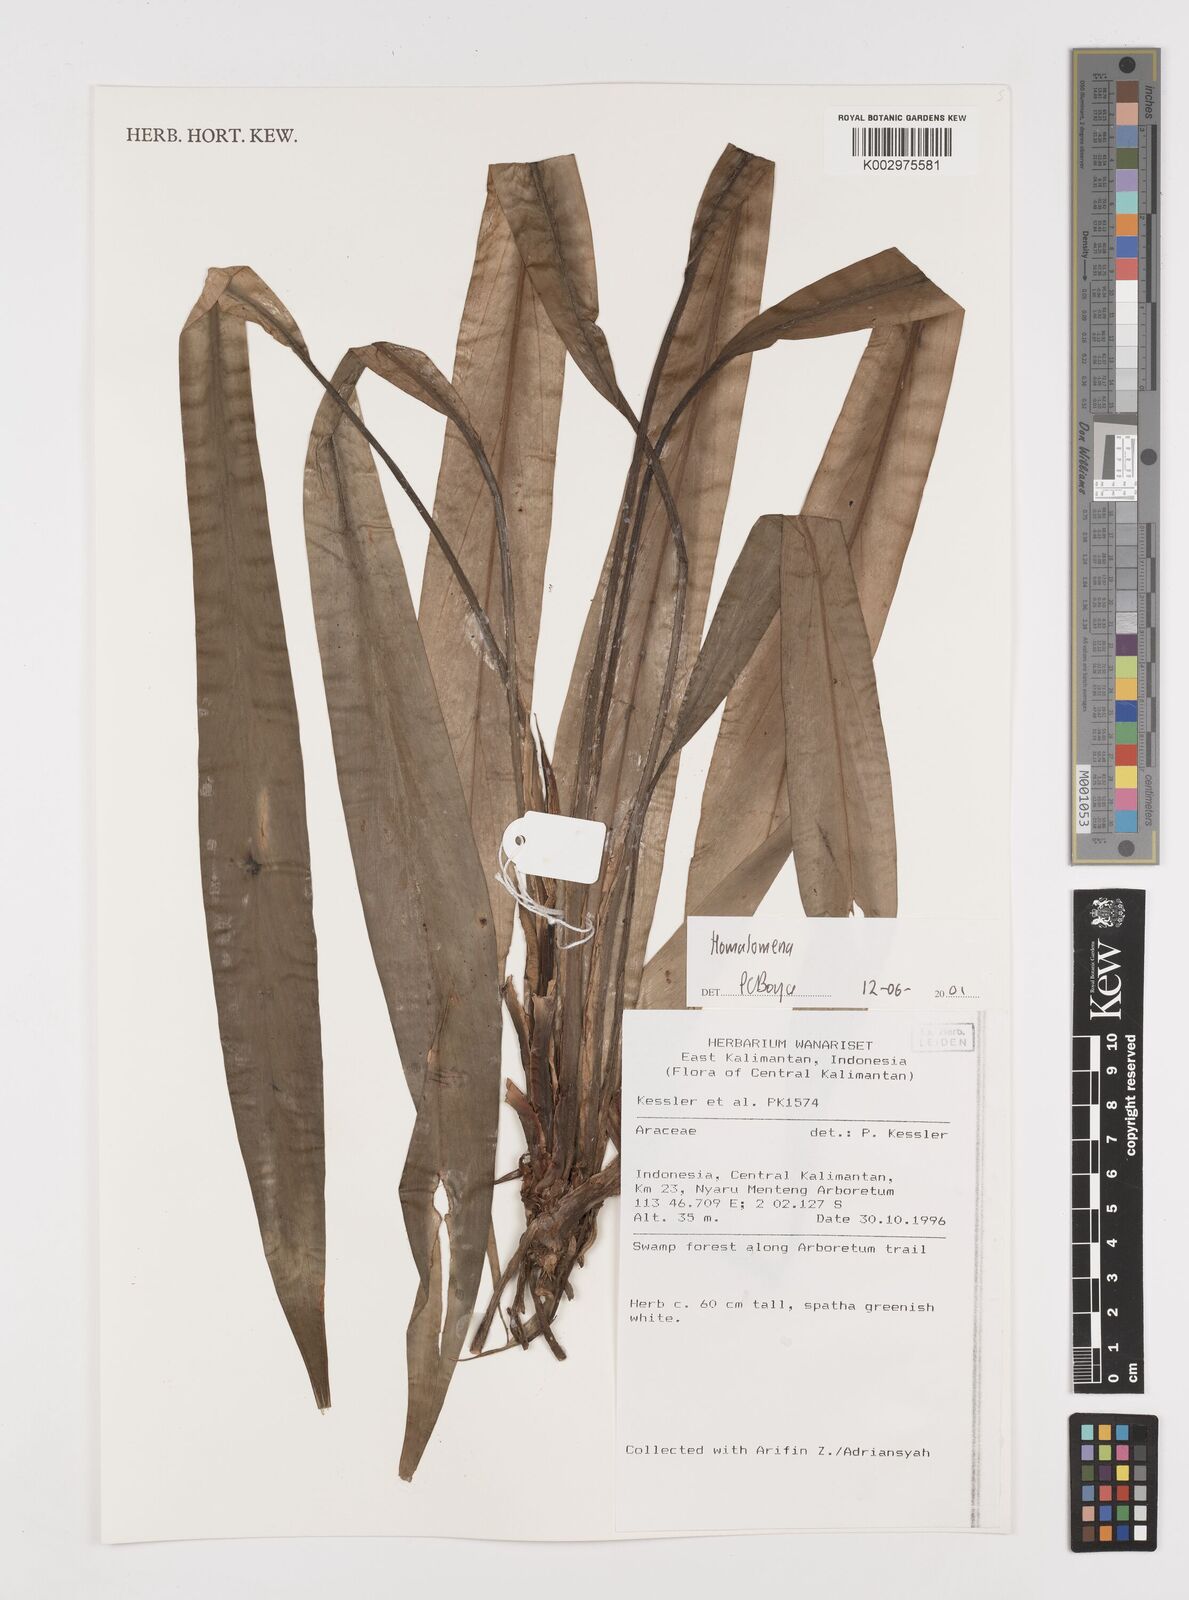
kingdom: Plantae
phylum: Tracheophyta
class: Liliopsida
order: Alismatales
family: Araceae
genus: Homalomena
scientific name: Homalomena
